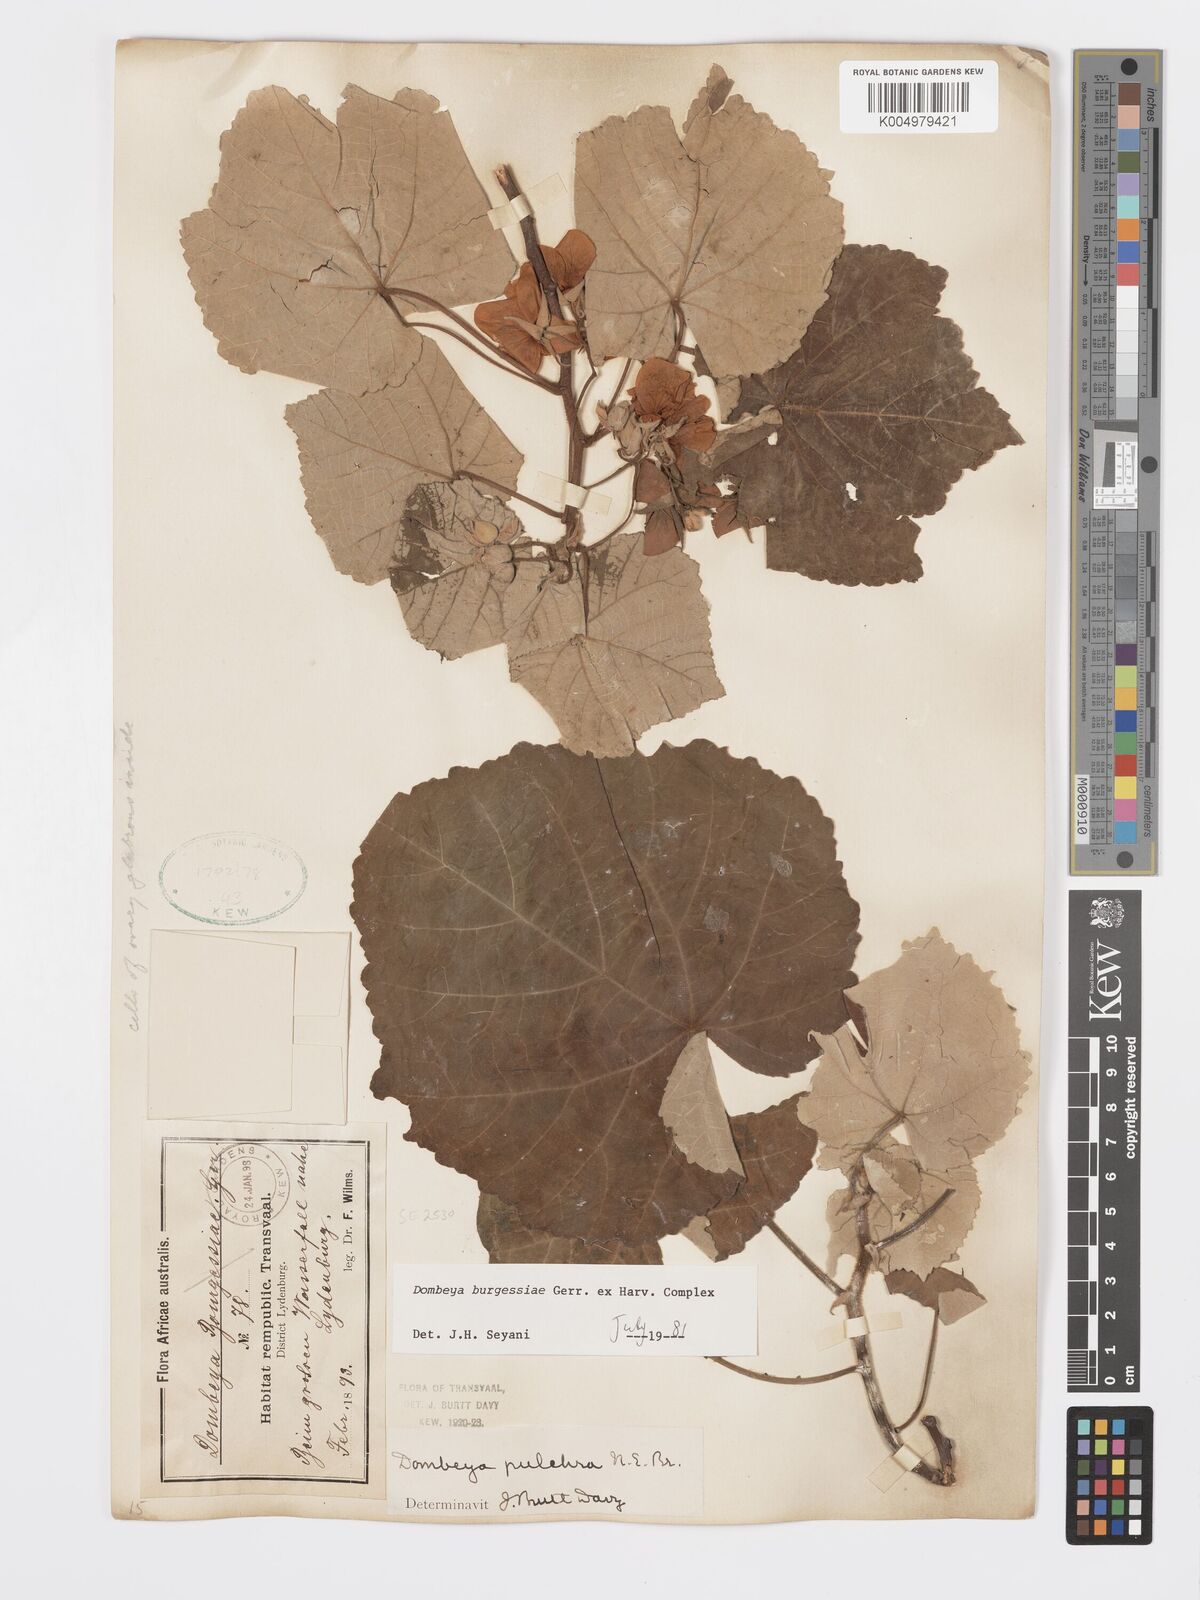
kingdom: Plantae
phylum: Tracheophyta
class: Magnoliopsida
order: Malvales
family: Malvaceae
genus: Dombeya
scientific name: Dombeya burgessiae
